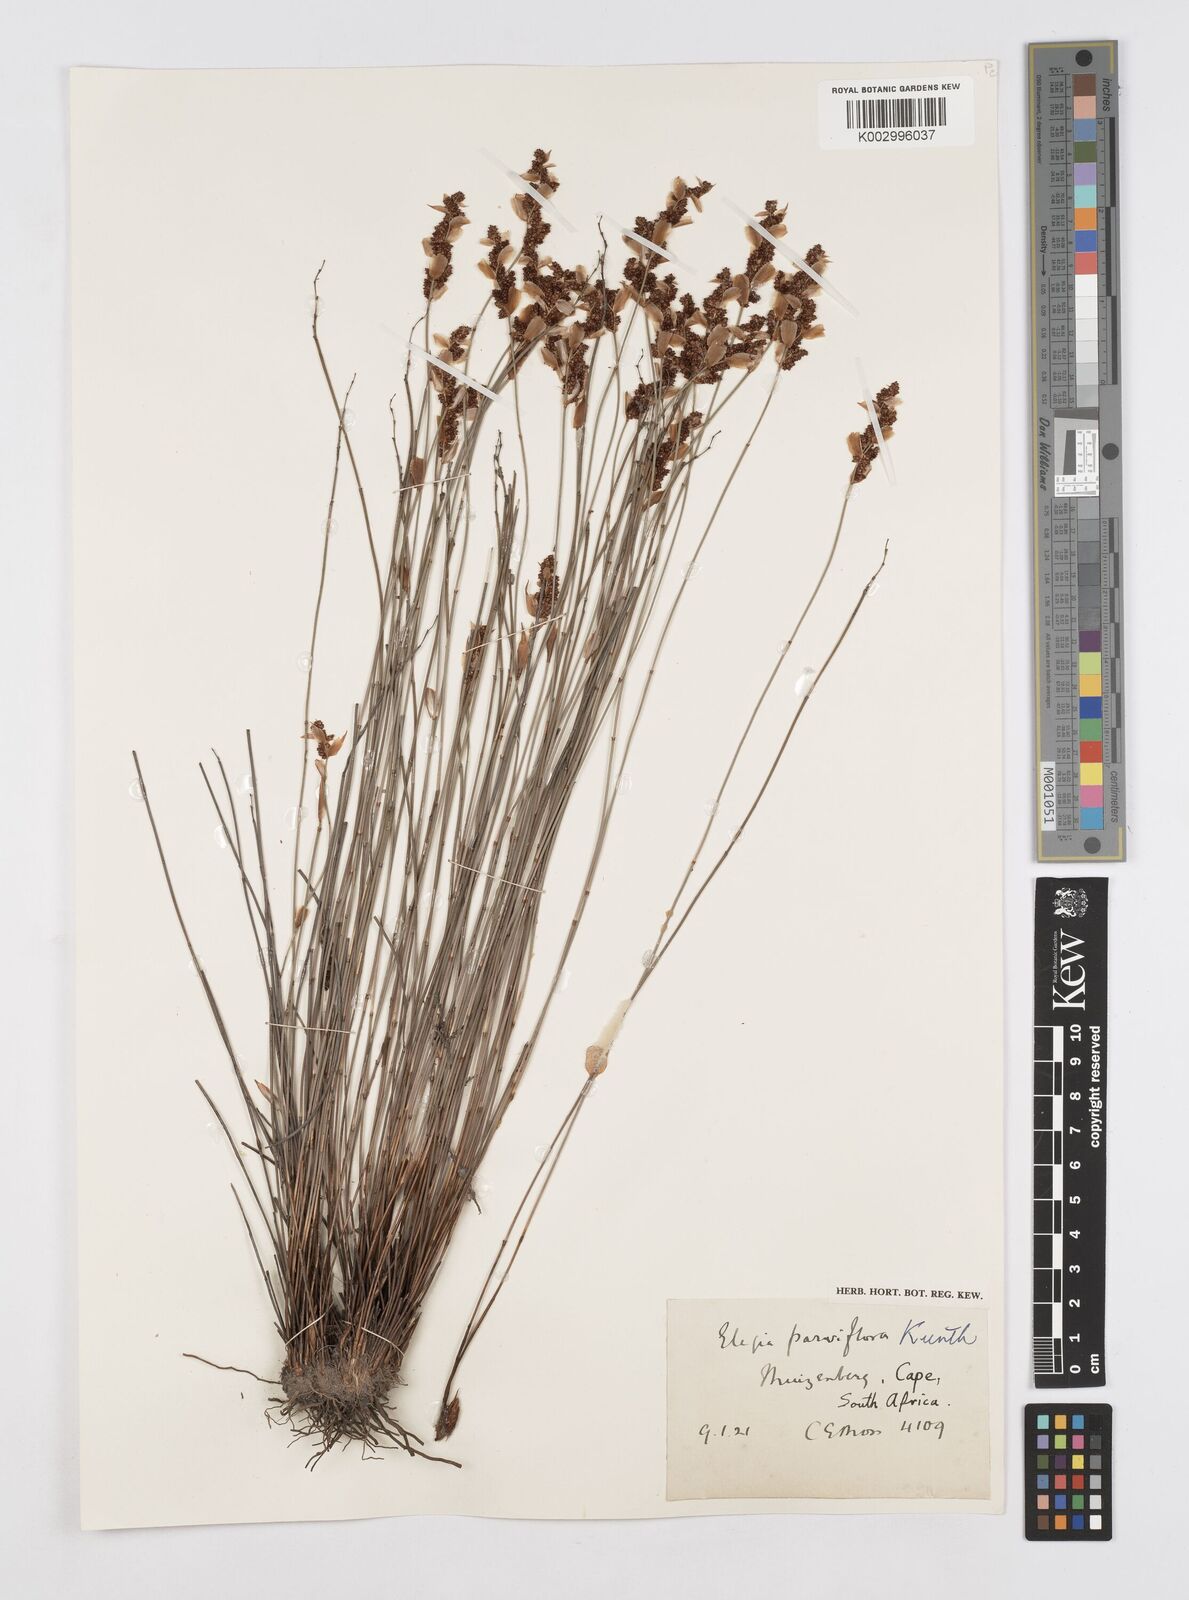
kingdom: Plantae
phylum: Tracheophyta
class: Liliopsida
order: Poales
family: Restionaceae
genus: Cannomois
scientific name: Cannomois parviflora
